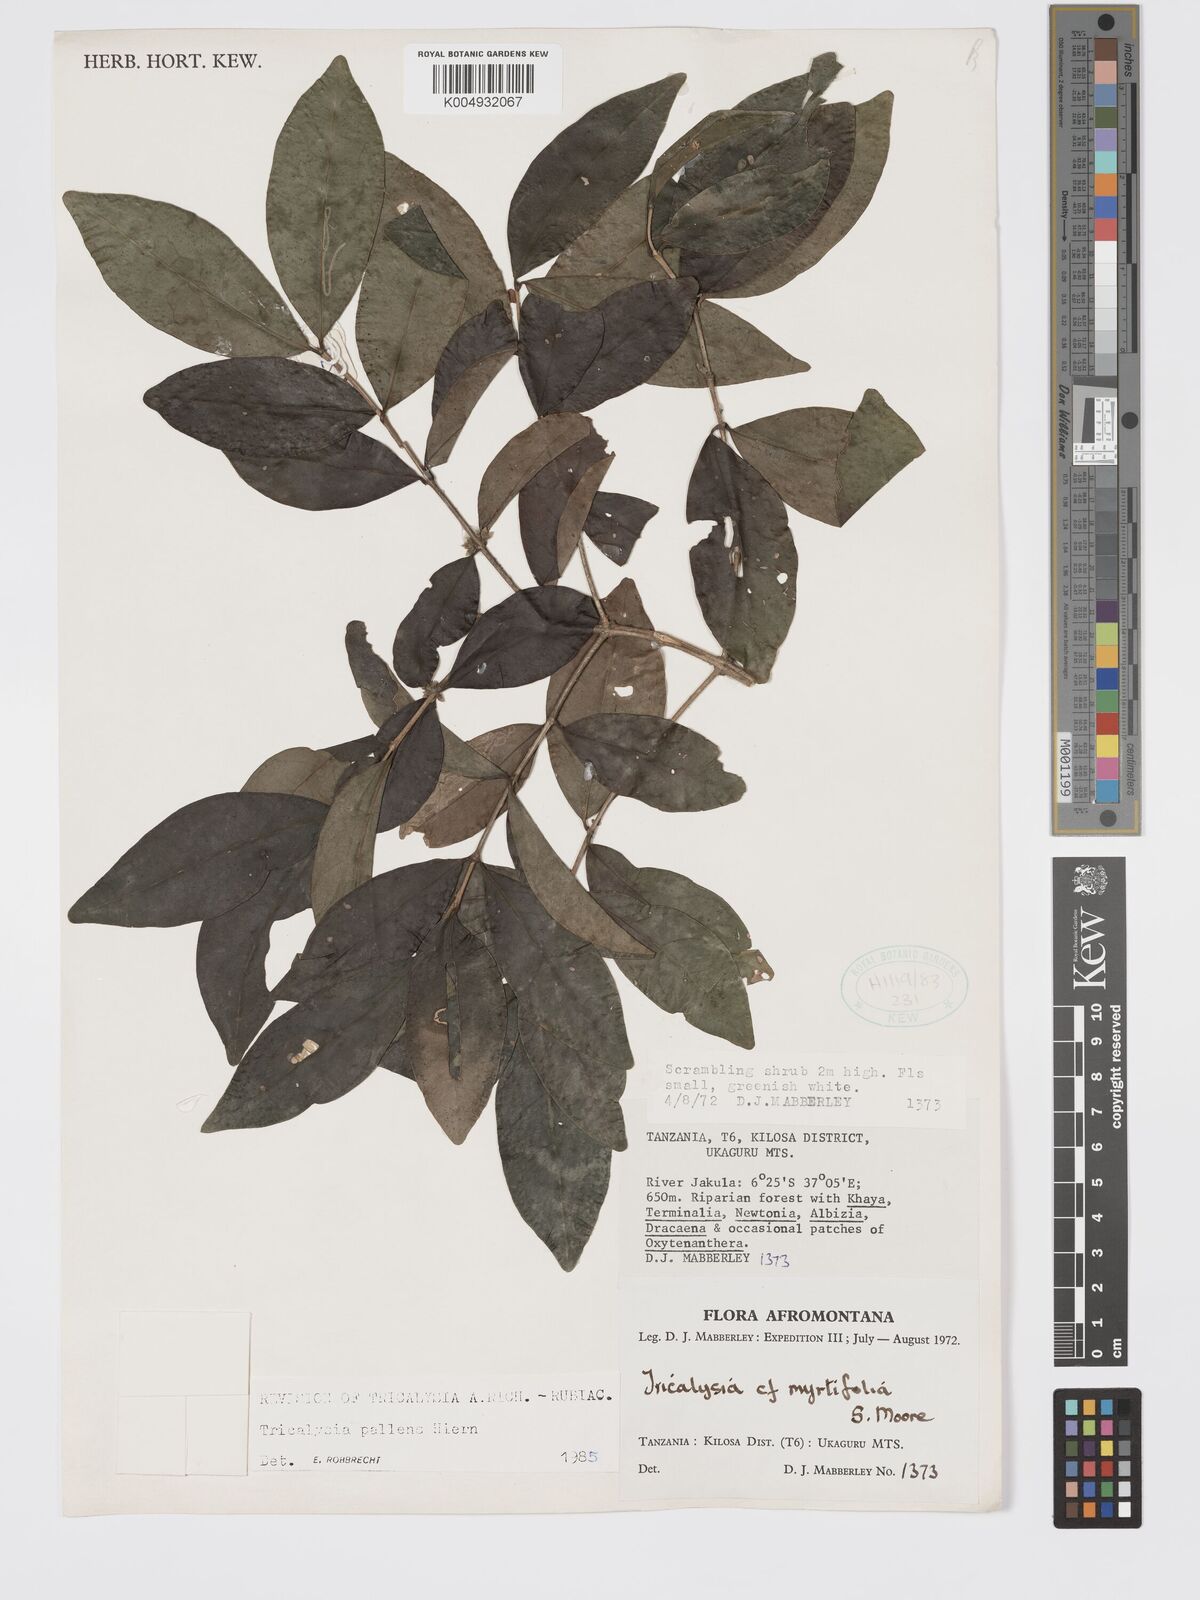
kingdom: Plantae
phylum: Tracheophyta
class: Magnoliopsida
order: Gentianales
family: Rubiaceae
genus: Tricalysia
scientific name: Tricalysia pallens
